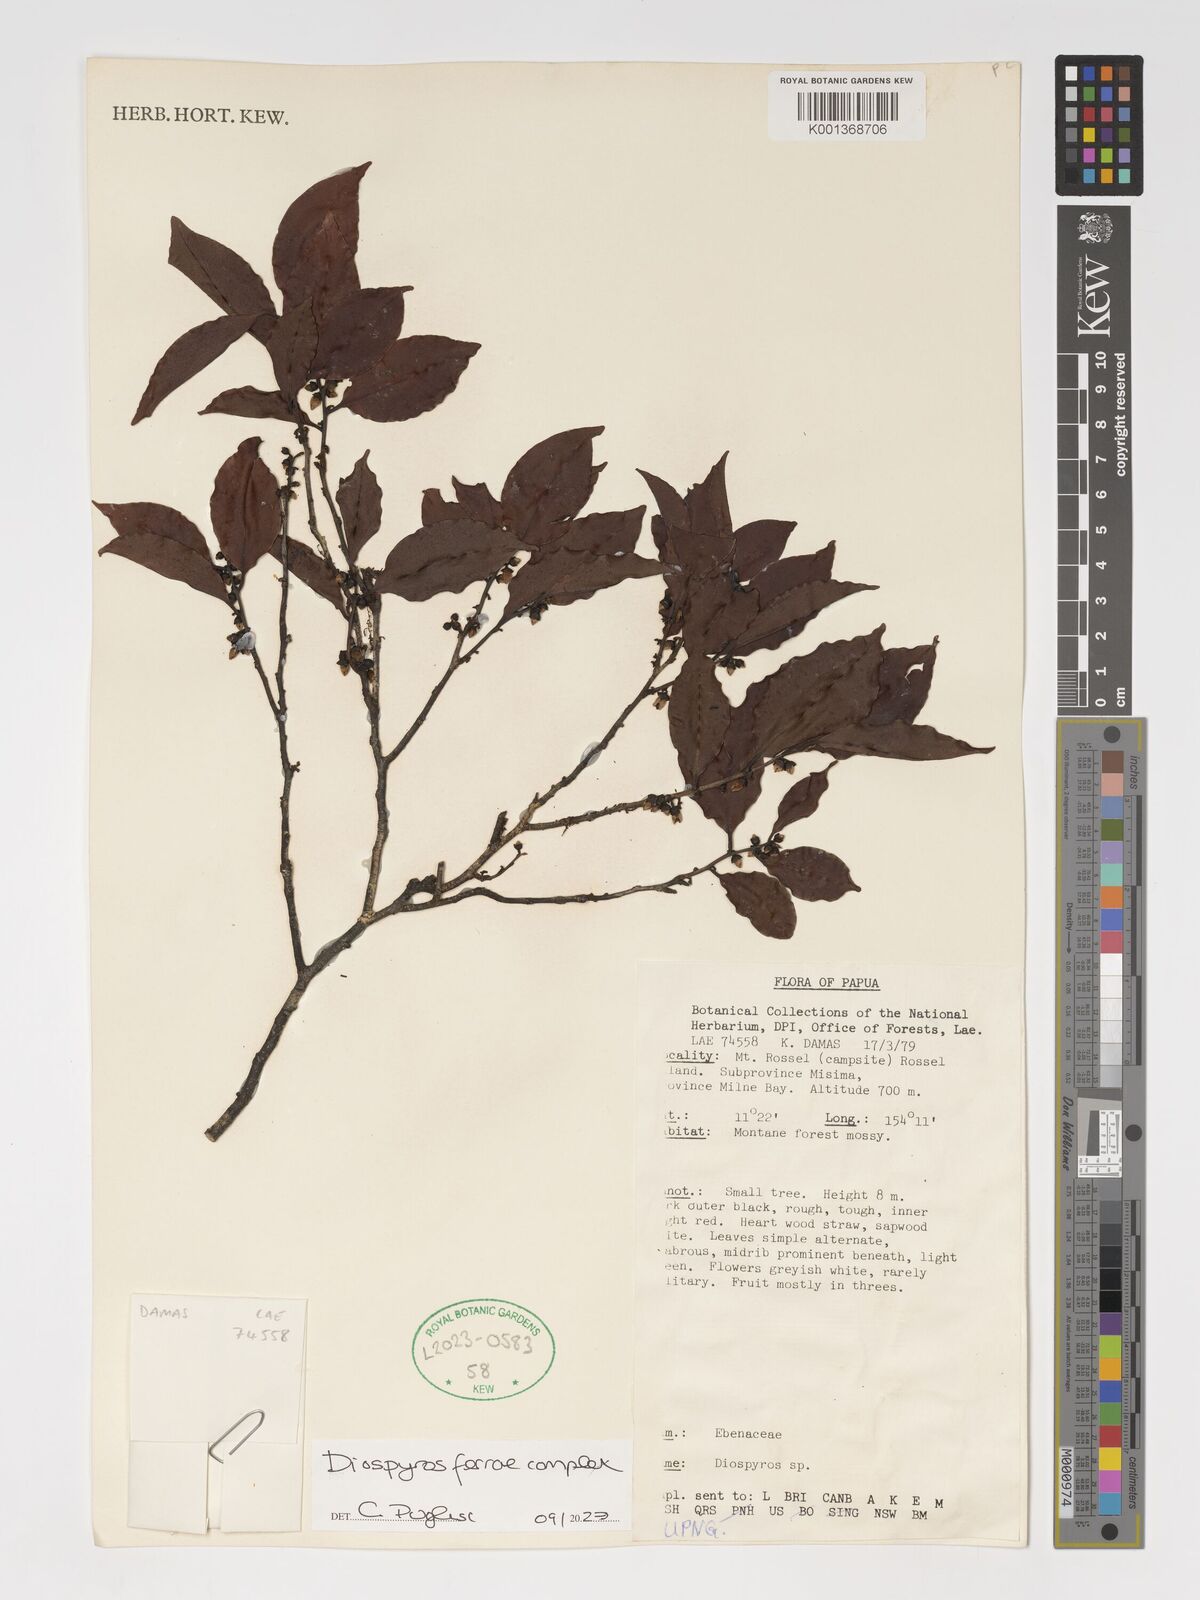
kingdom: Plantae
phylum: Tracheophyta
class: Magnoliopsida
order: Ericales
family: Ebenaceae
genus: Diospyros
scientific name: Diospyros ferrea
